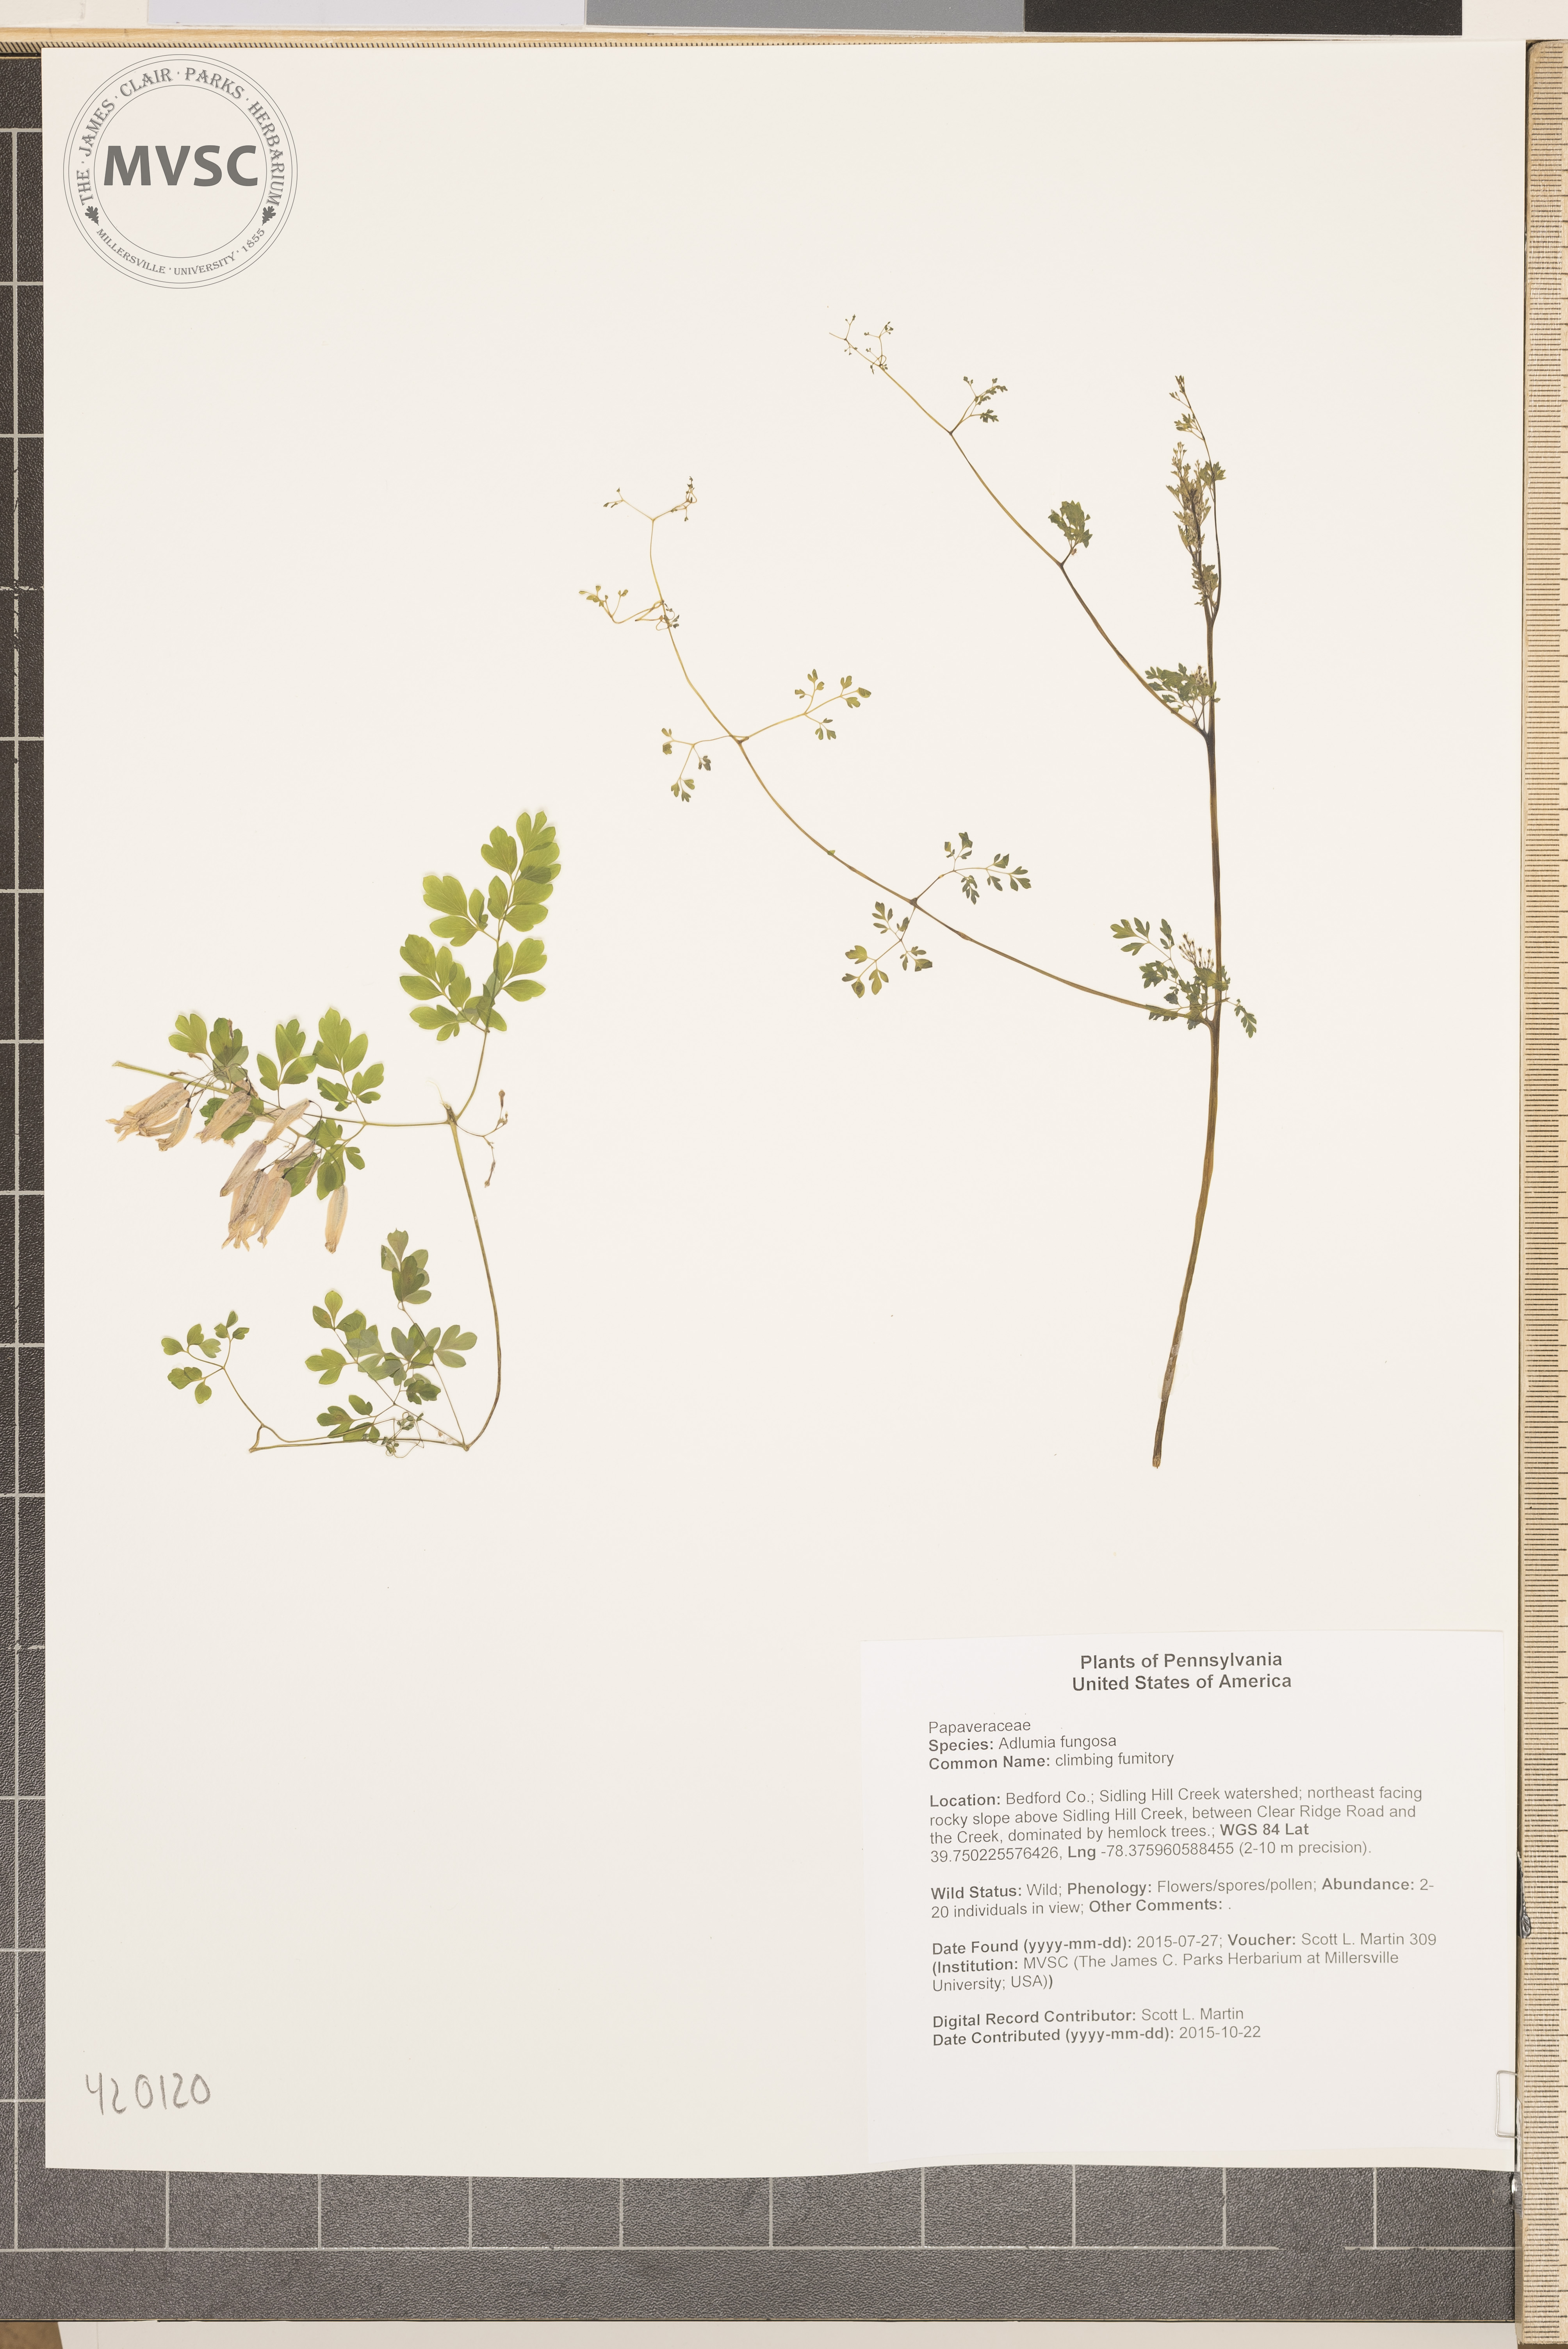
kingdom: Plantae
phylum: Tracheophyta
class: Magnoliopsida
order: Ranunculales
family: Papaveraceae
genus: Adlumia
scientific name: Adlumia fungosa
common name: climbing fumitory
